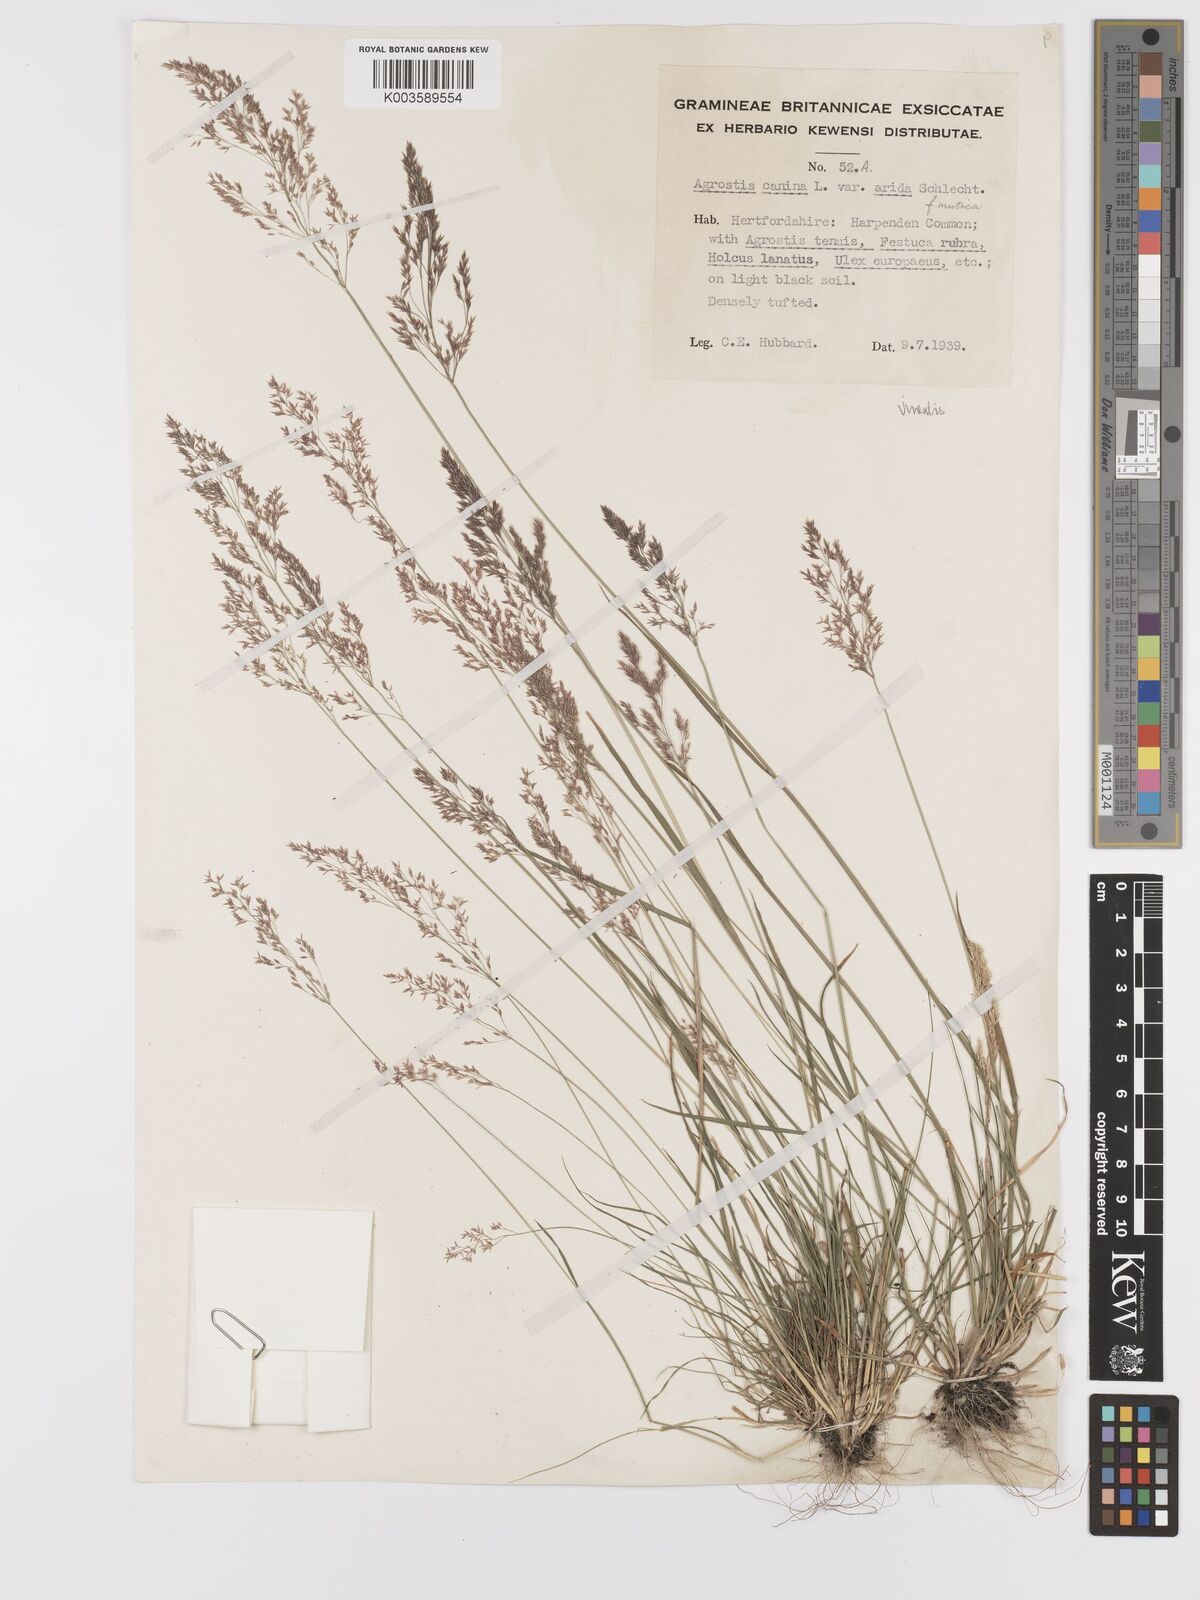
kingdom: Plantae
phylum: Tracheophyta
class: Liliopsida
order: Poales
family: Poaceae
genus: Agrostis
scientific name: Agrostis
